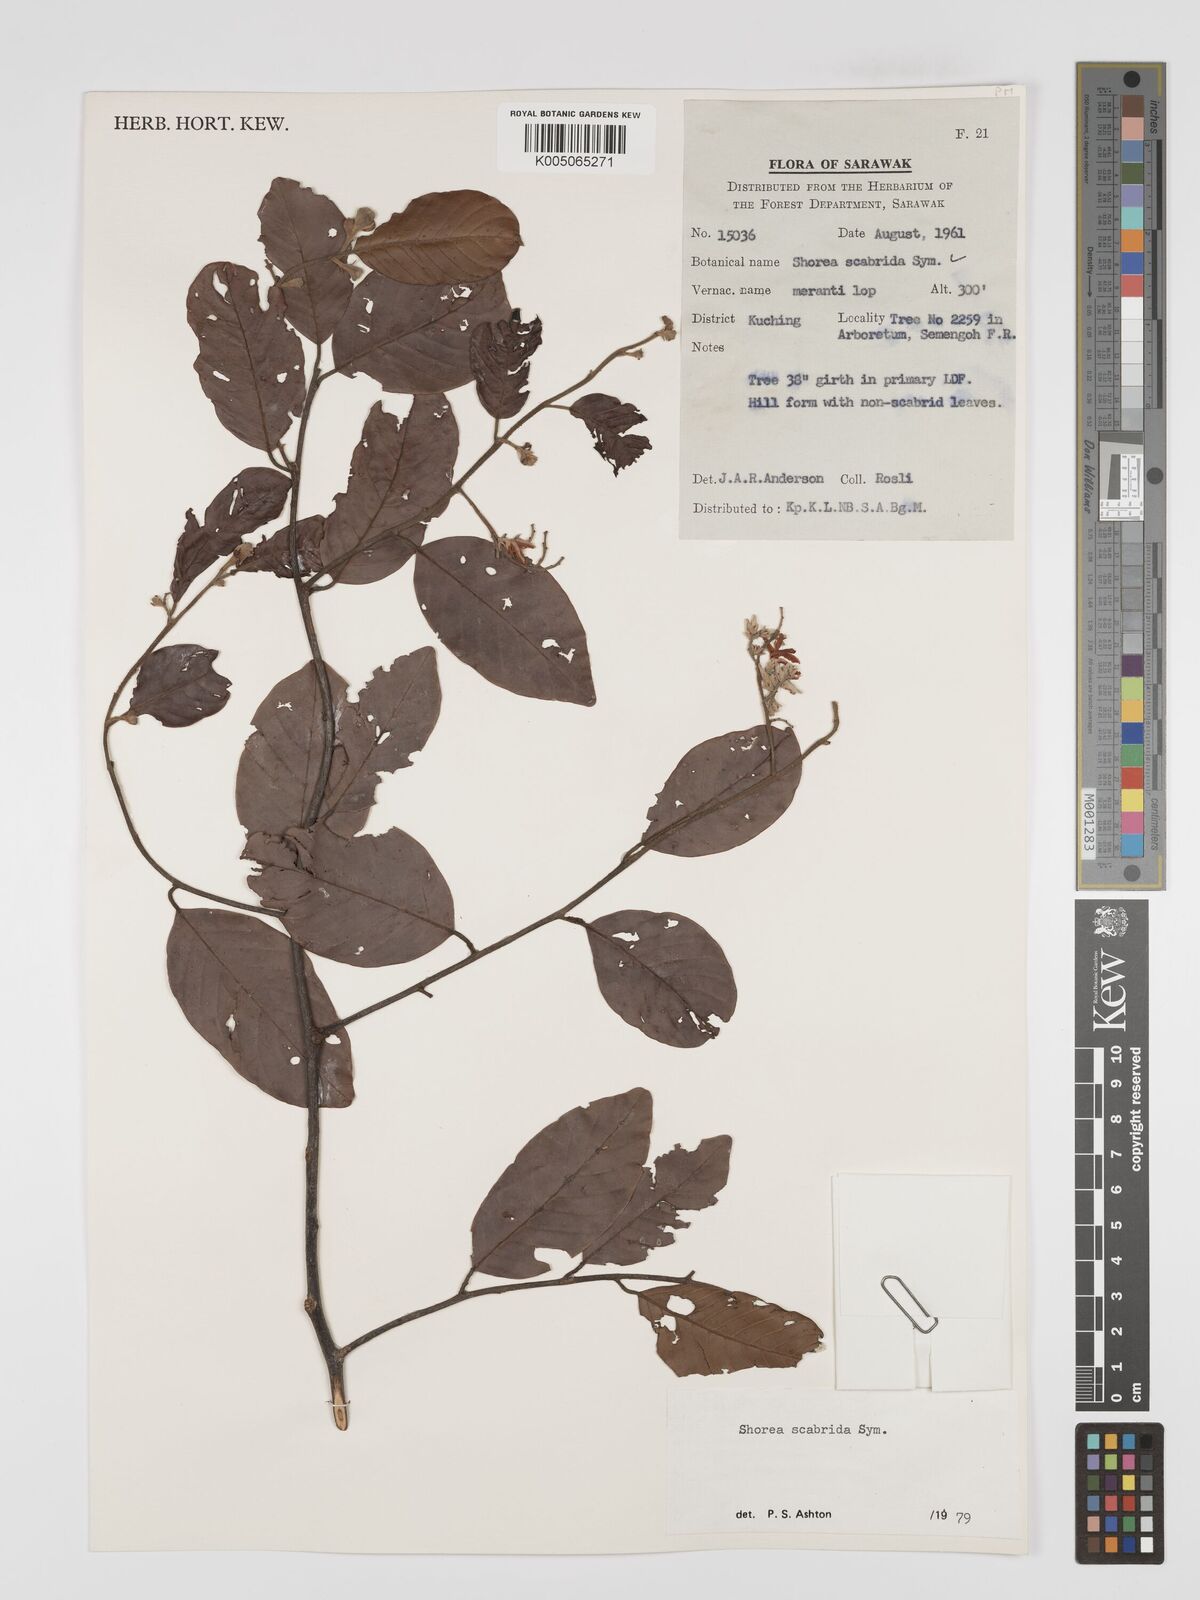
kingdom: Plantae
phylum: Tracheophyta
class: Magnoliopsida
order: Malvales
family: Dipterocarpaceae
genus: Shorea
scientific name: Shorea scabrida
